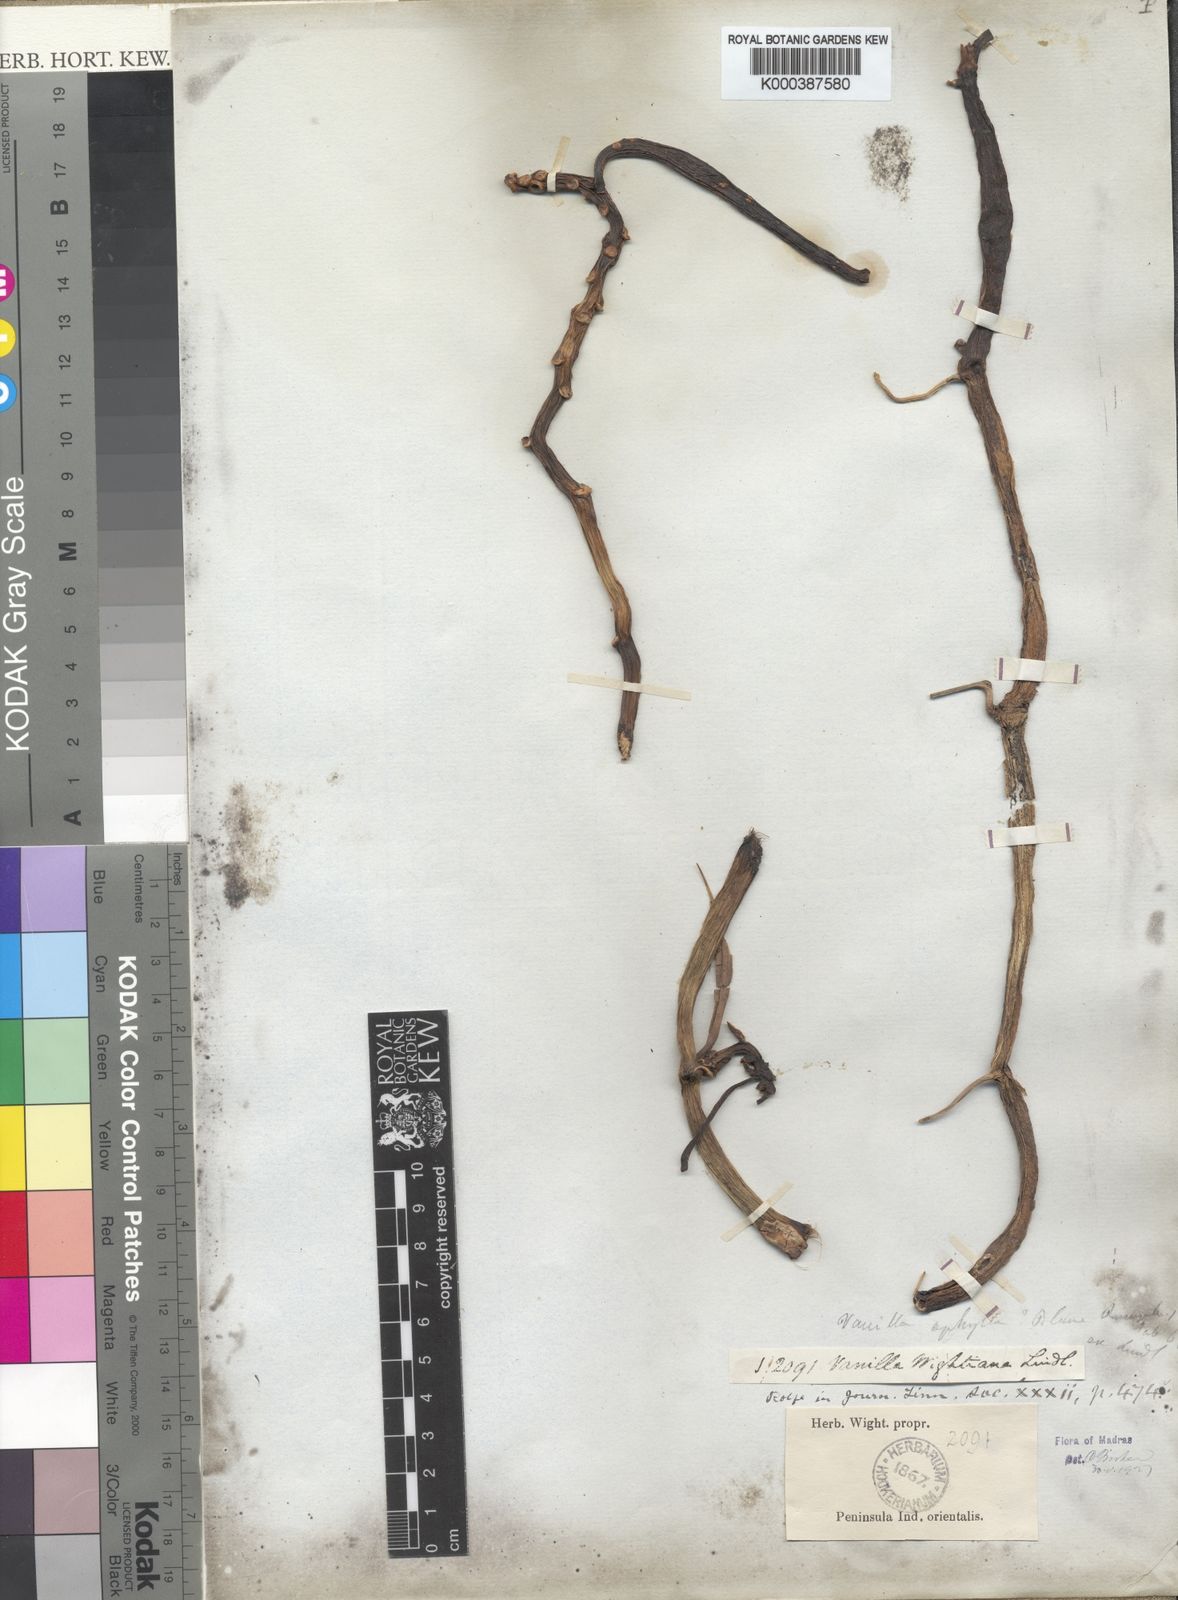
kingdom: Plantae
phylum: Tracheophyta
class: Liliopsida
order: Asparagales
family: Orchidaceae
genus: Vanilla
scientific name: Vanilla wightii
